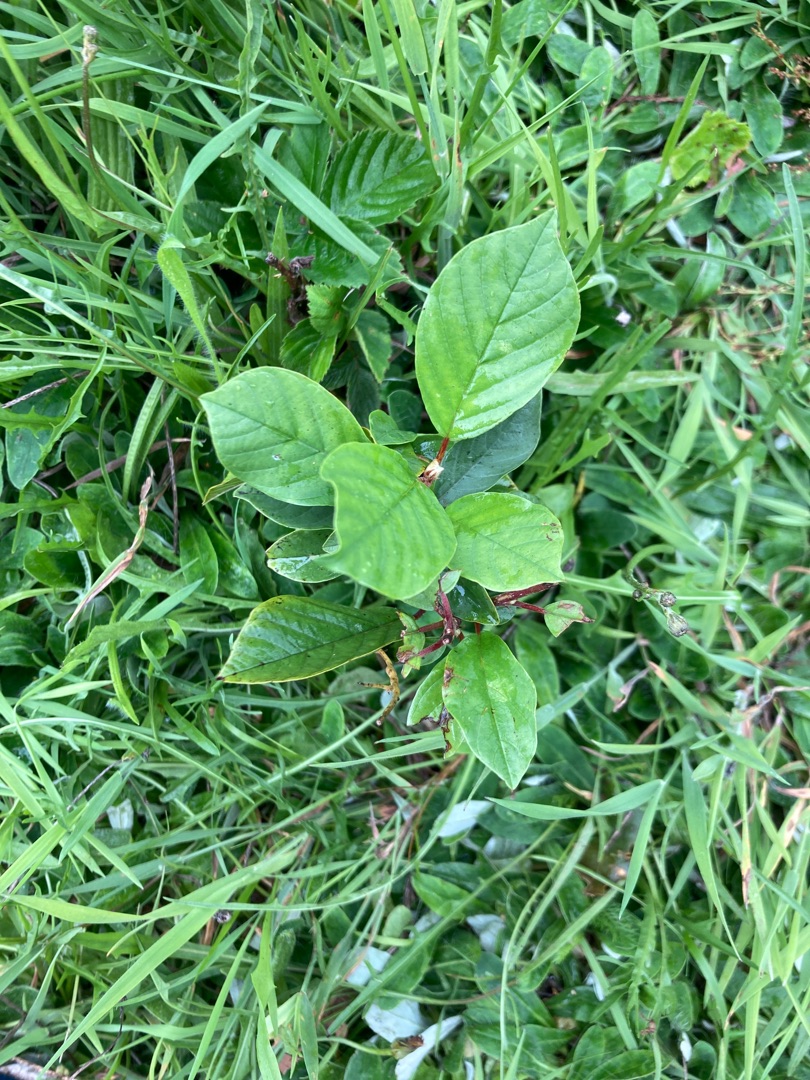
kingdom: Plantae
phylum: Tracheophyta
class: Magnoliopsida
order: Rosales
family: Rhamnaceae
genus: Frangula
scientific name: Frangula alnus
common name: Tørst
